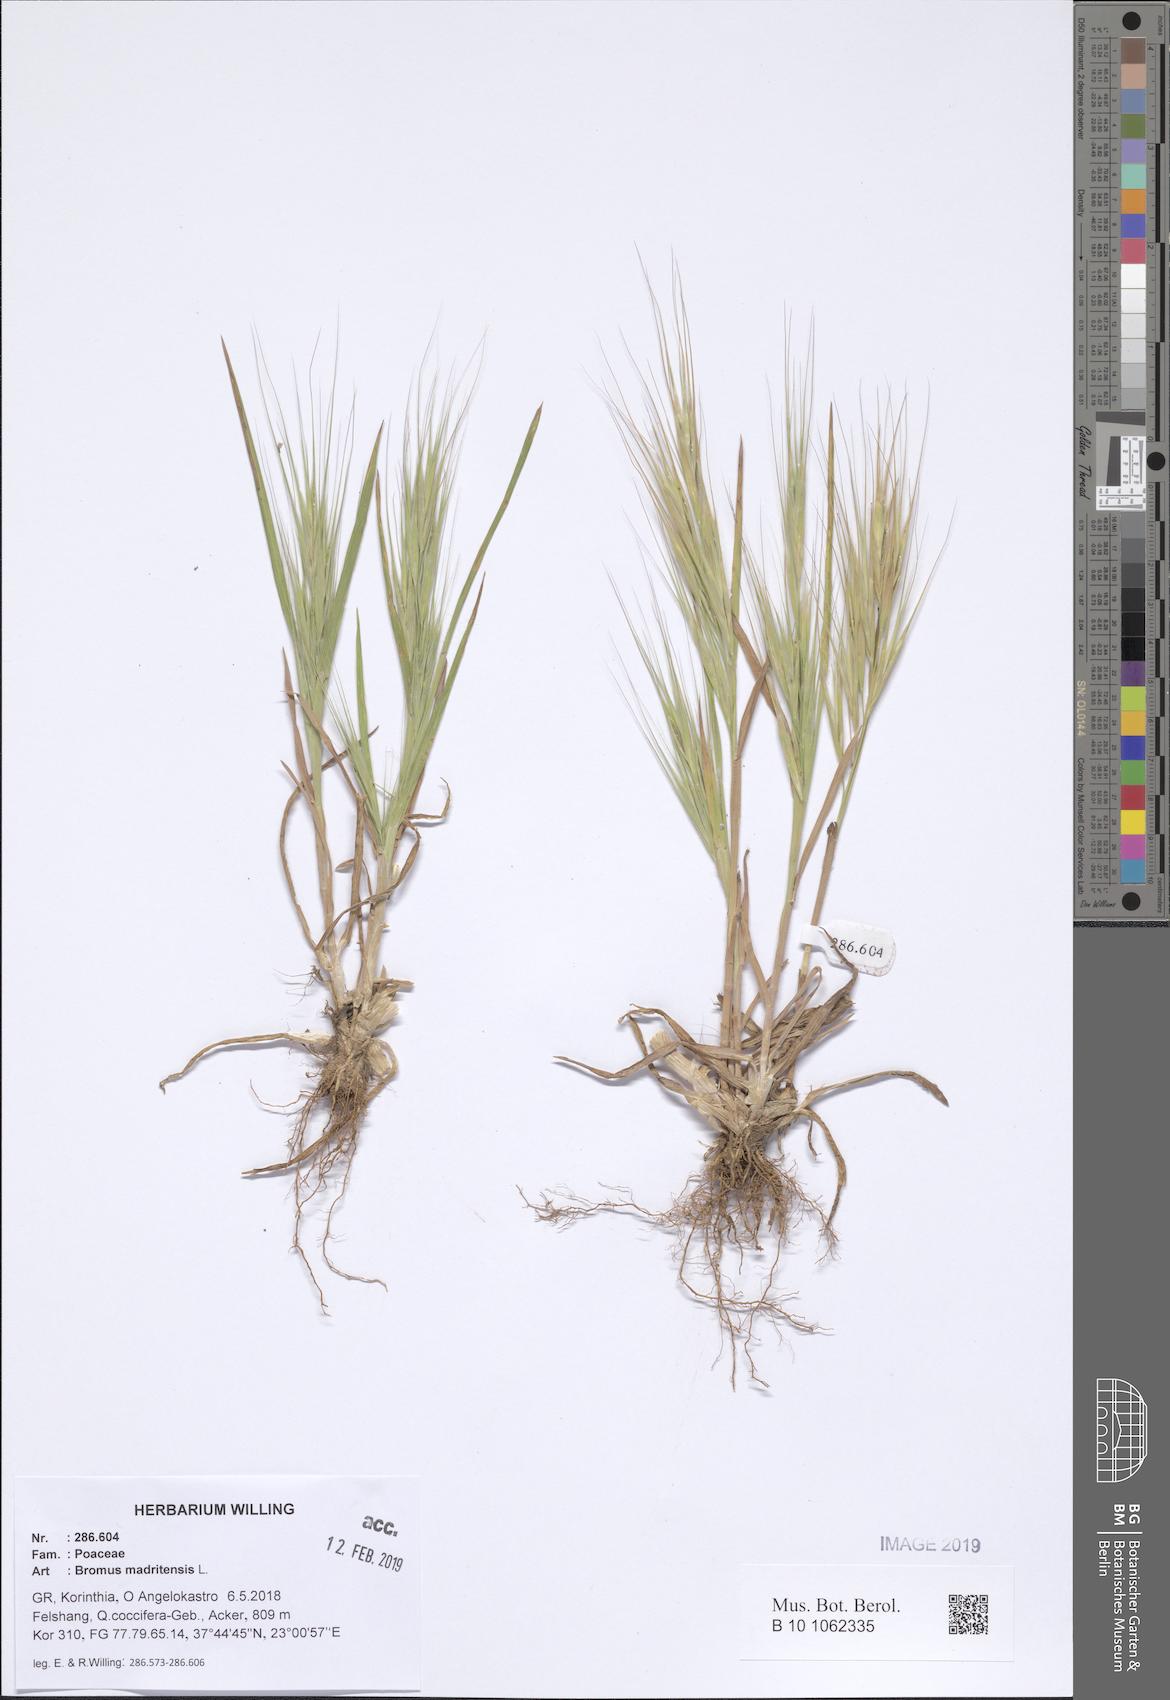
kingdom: Plantae
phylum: Tracheophyta
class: Liliopsida
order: Poales
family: Poaceae
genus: Bromus
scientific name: Bromus madritensis
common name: Compact brome
